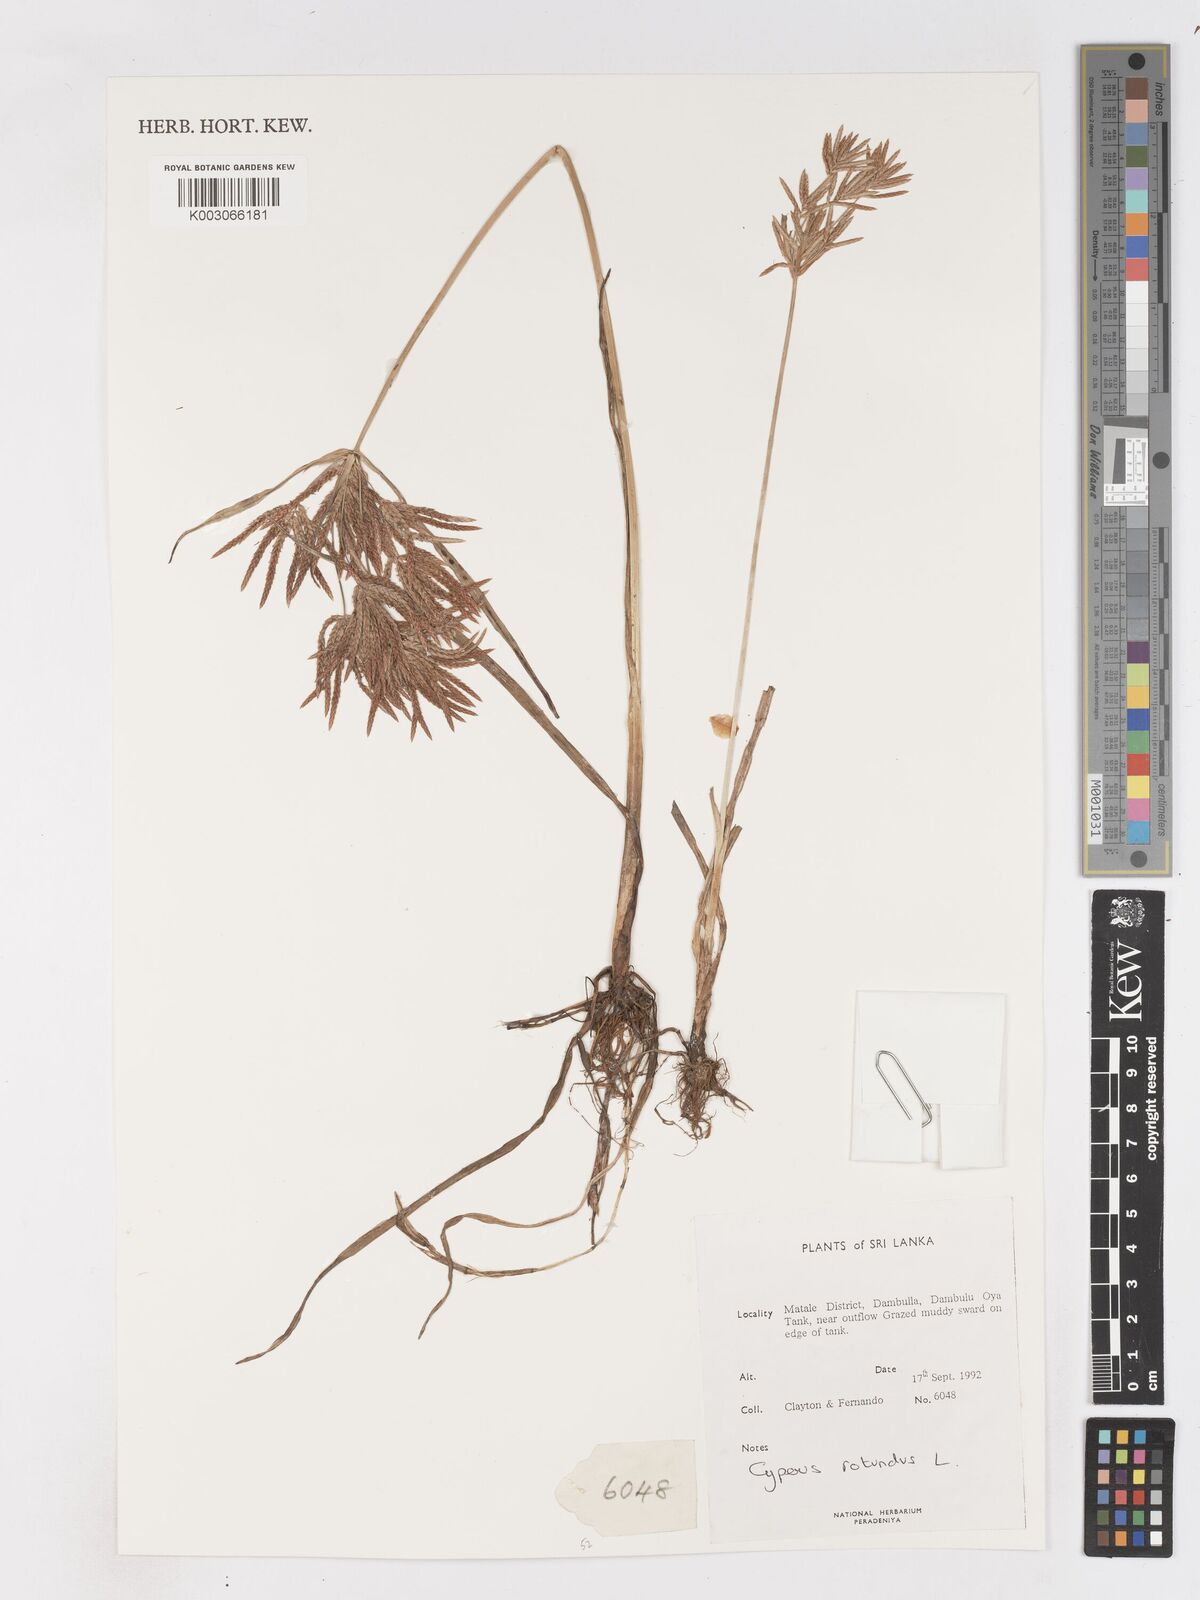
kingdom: Plantae
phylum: Tracheophyta
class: Liliopsida
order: Poales
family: Cyperaceae
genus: Cyperus
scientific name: Cyperus rotundus
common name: Nutgrass
